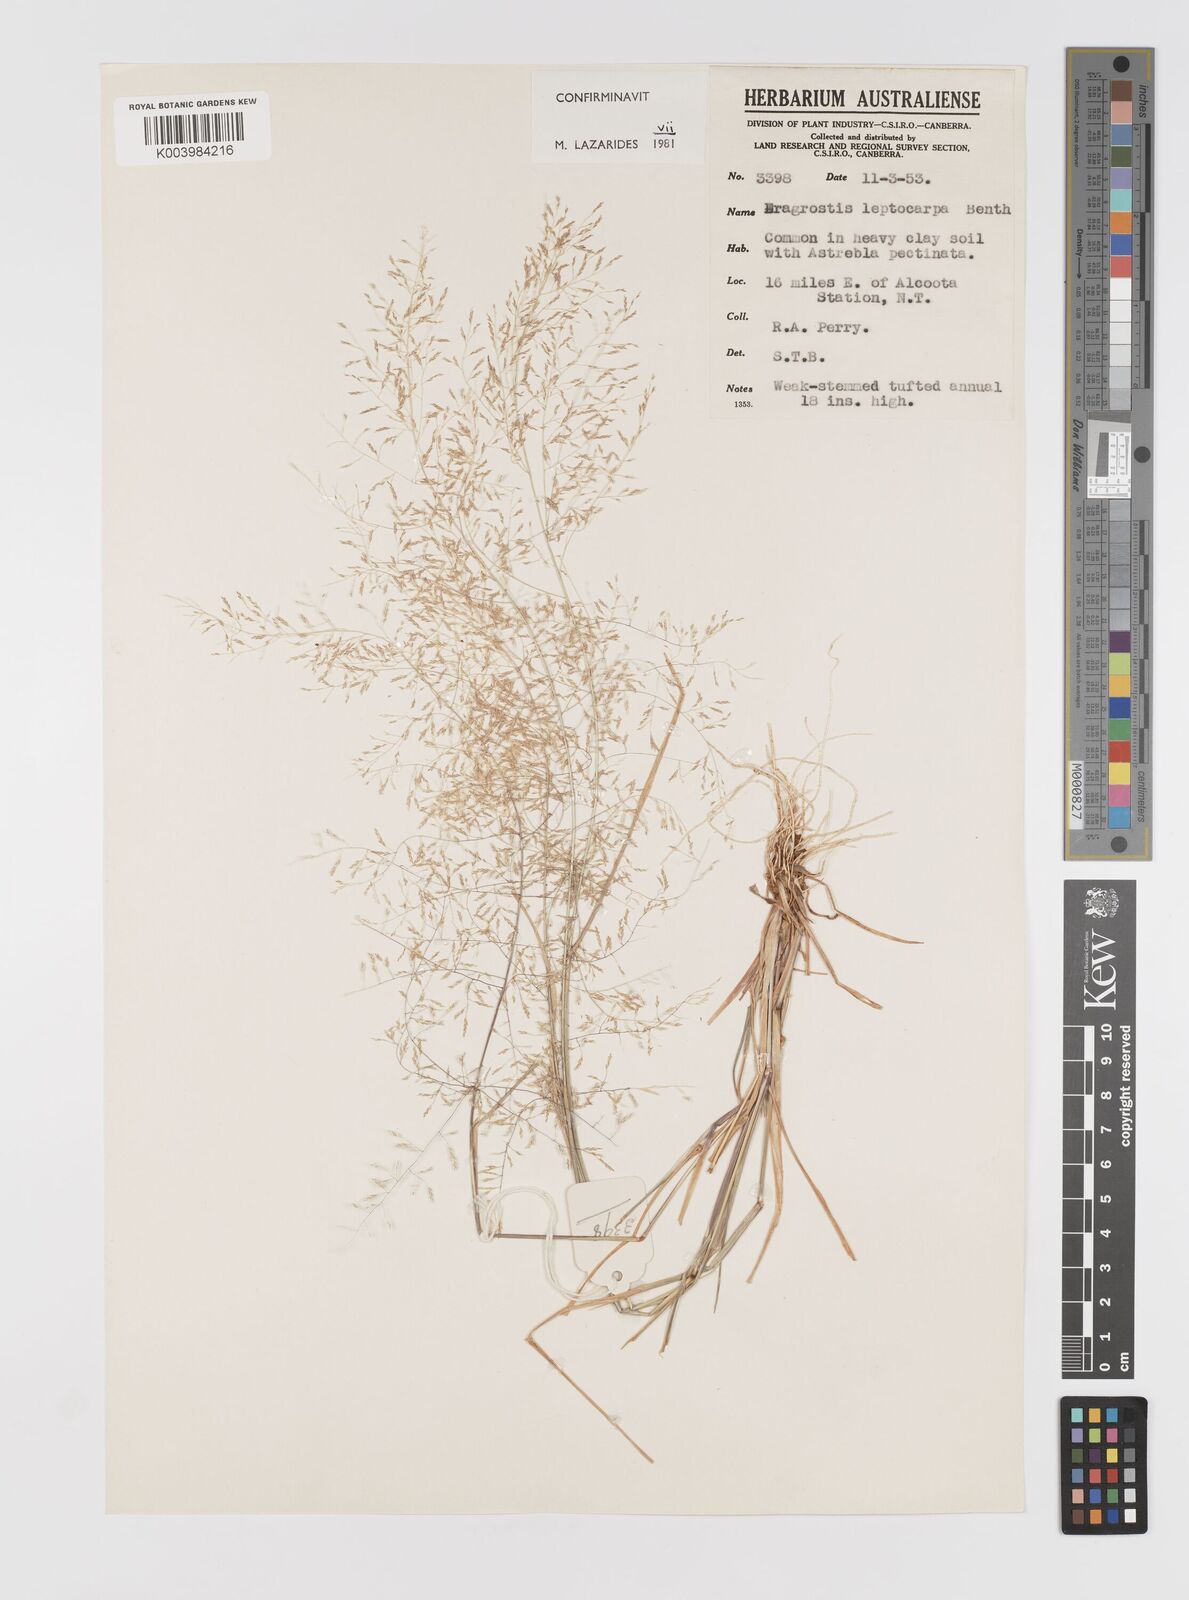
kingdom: Plantae
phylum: Tracheophyta
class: Liliopsida
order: Poales
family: Poaceae
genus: Eragrostis
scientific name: Eragrostis leptocarpa
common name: Drooping love grass
